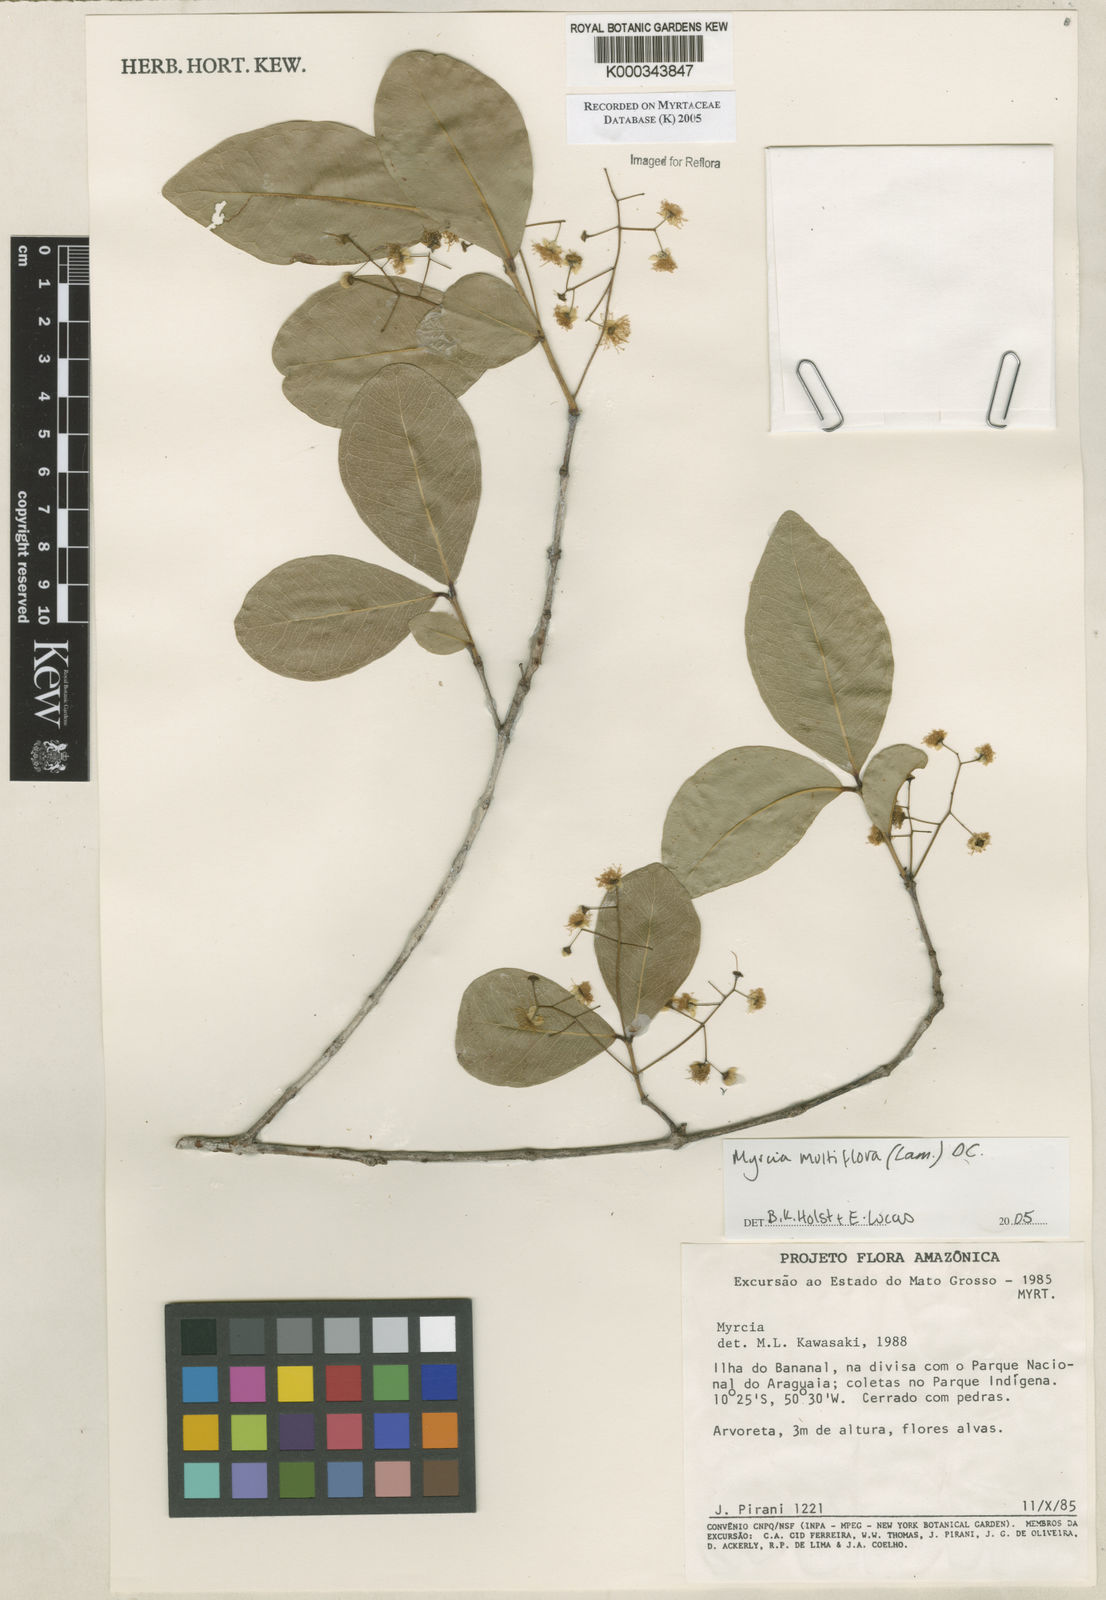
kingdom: Plantae
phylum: Tracheophyta
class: Magnoliopsida
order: Myrtales
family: Myrtaceae
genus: Myrcia
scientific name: Myrcia multiflora
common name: Pedra hume
